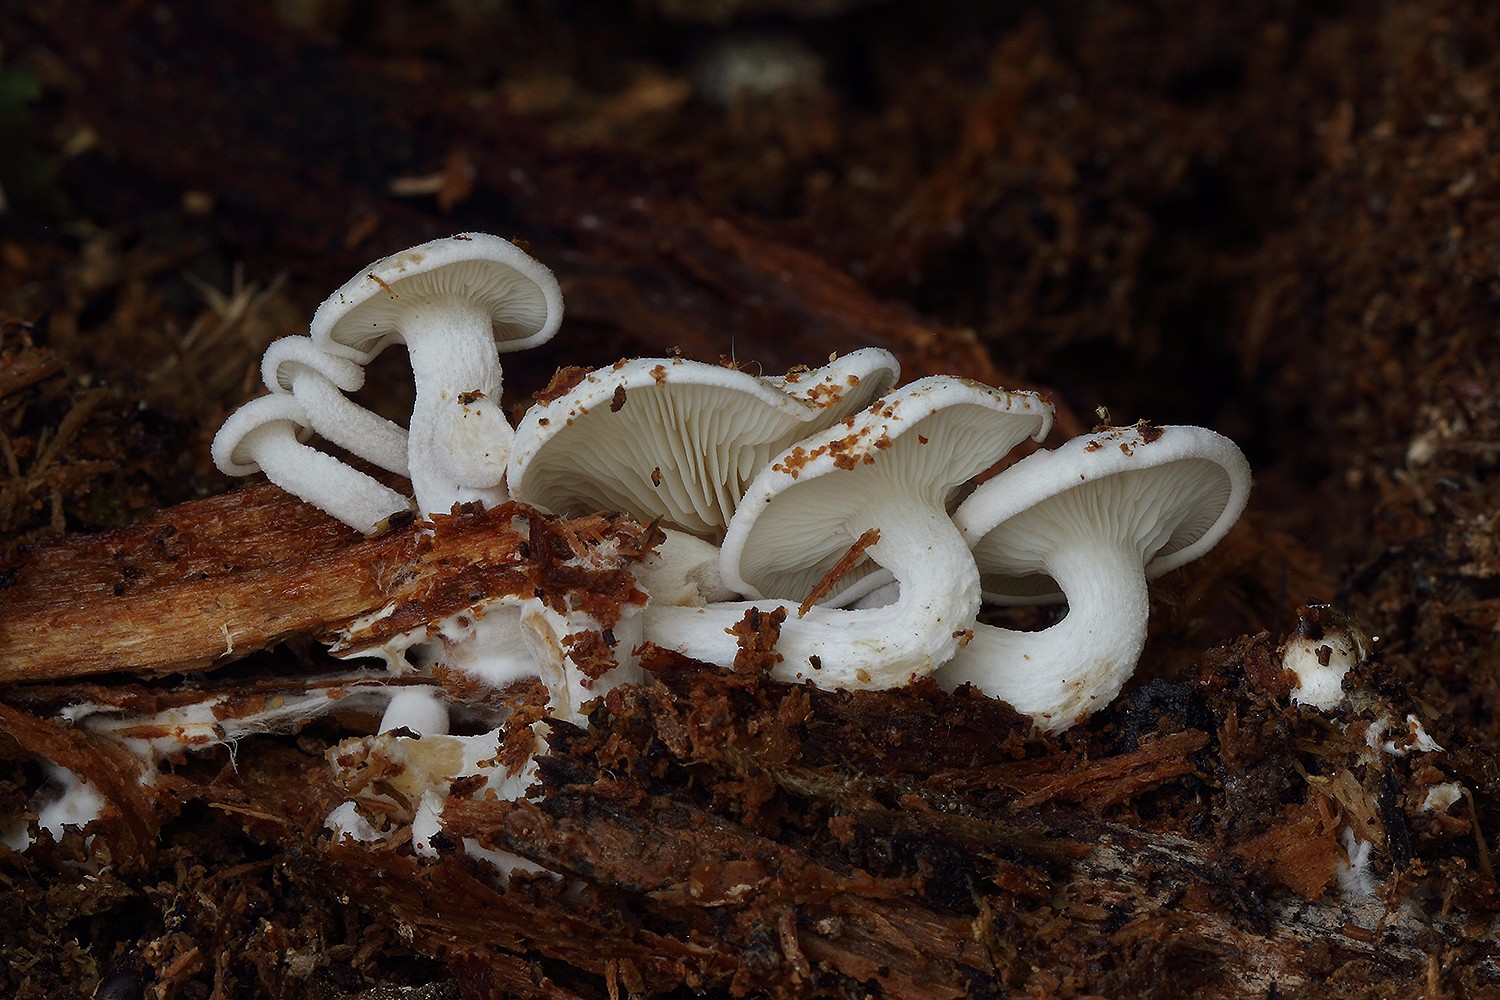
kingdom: Fungi
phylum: Basidiomycota
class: Agaricomycetes
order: Agaricales
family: Lyophyllaceae
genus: Ossicaulis
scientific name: Ossicaulis lignatilis
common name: hvidlig vedtragthat
